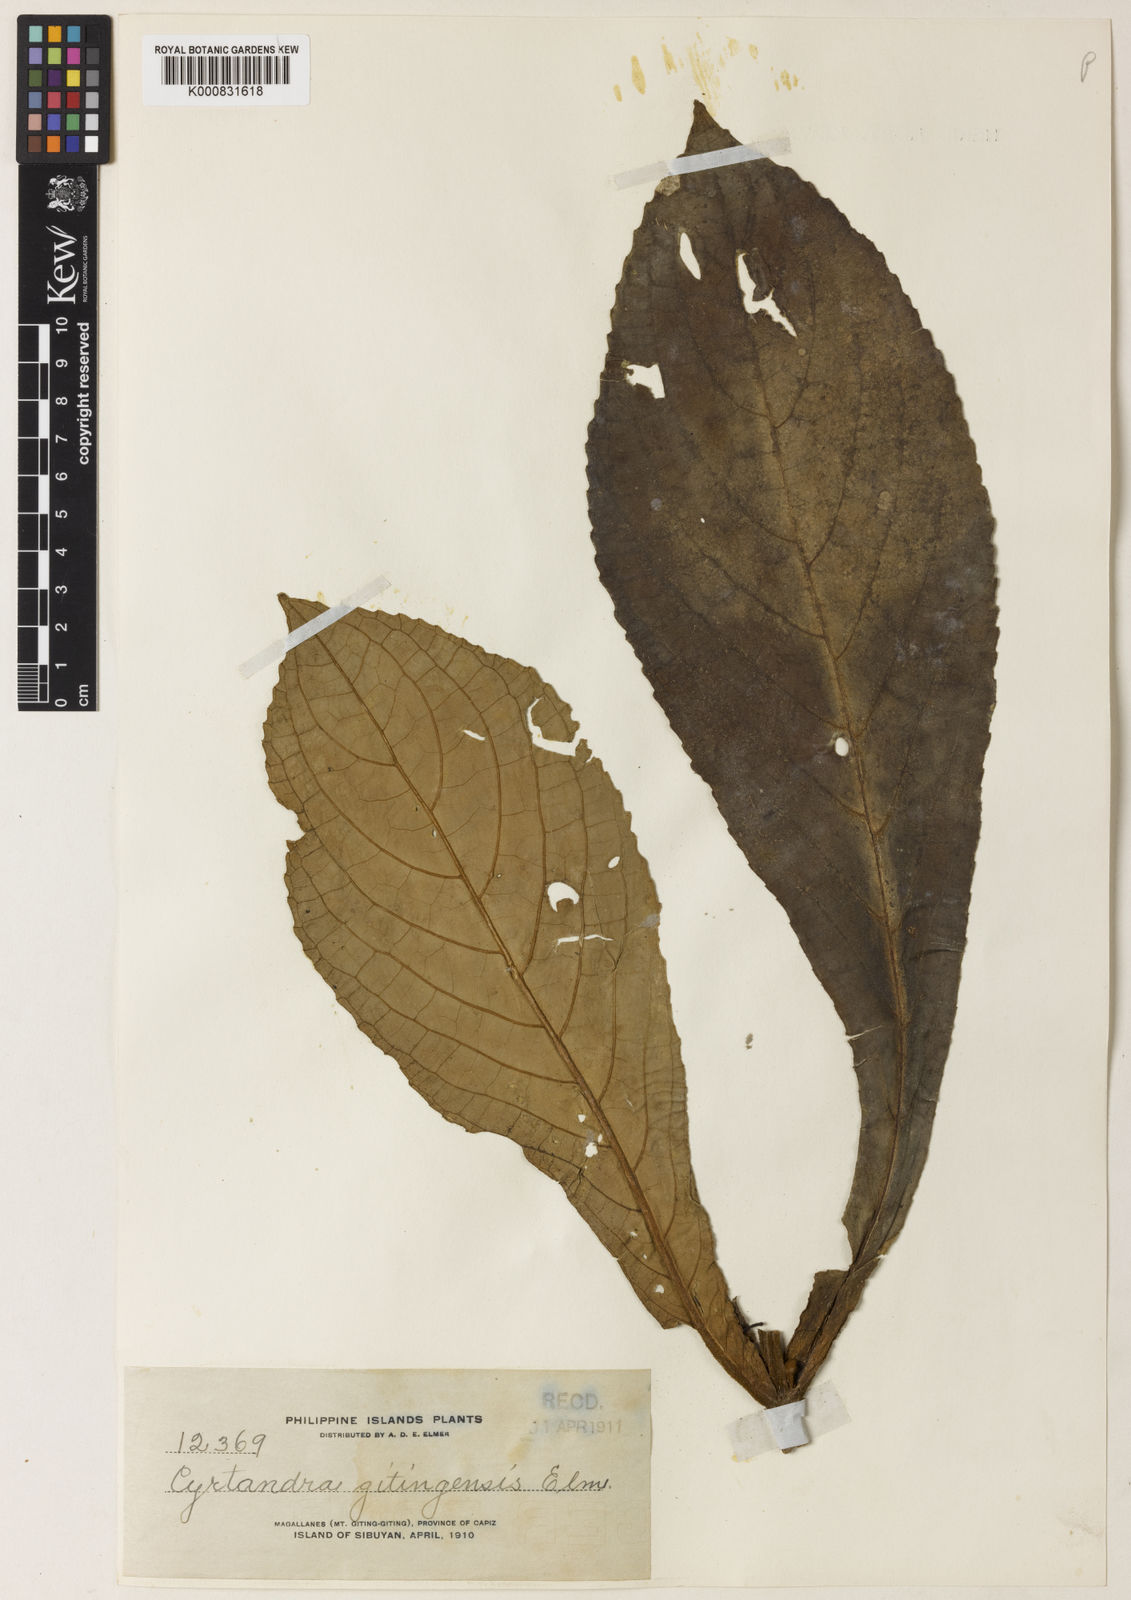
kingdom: Plantae
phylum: Tracheophyta
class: Magnoliopsida
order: Lamiales
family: Gesneriaceae
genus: Cyrtandra
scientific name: Cyrtandra gitingensis
